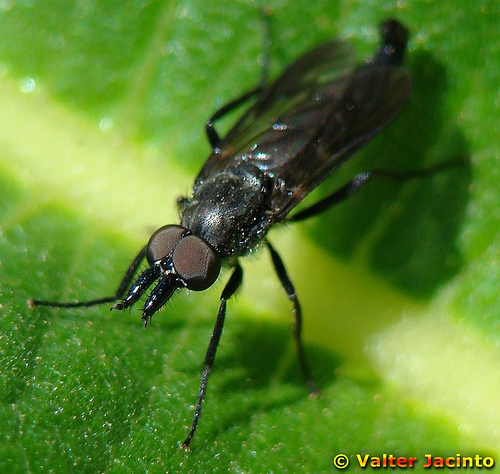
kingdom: Animalia
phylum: Arthropoda
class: Insecta
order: Diptera
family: Therevidae
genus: Salentia
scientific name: Salentia xestomyzina
